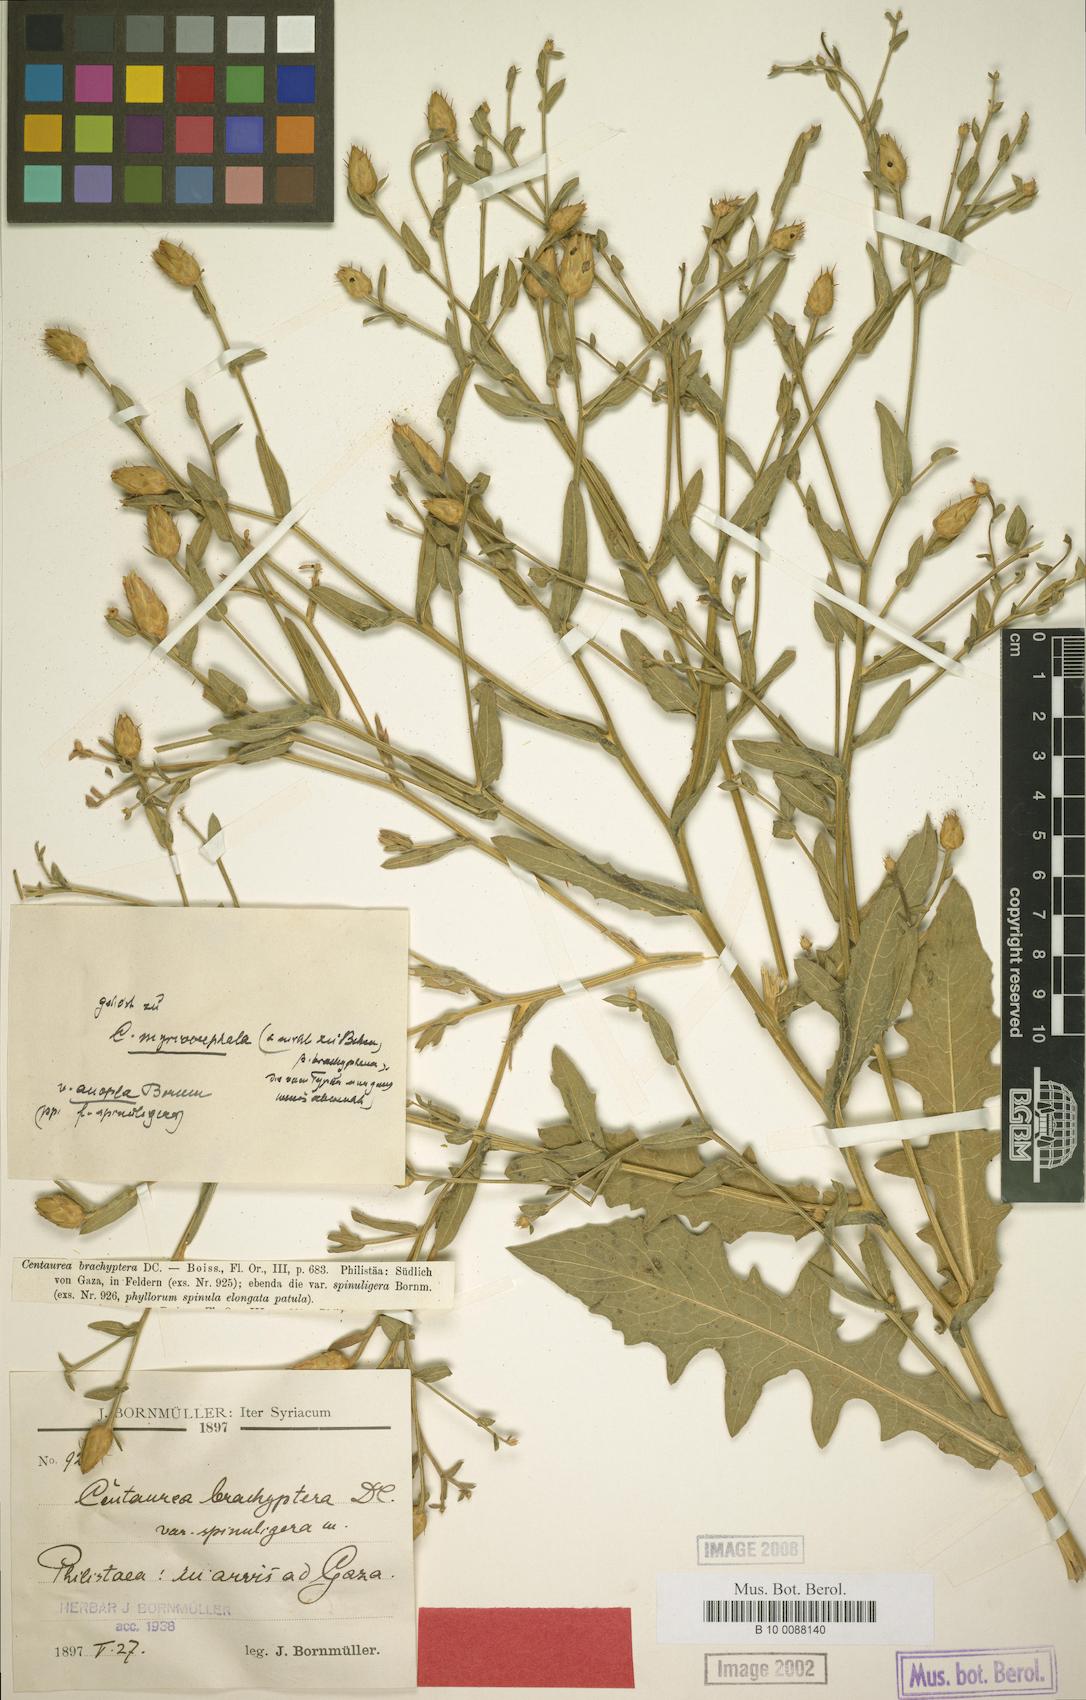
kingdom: Plantae
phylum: Tracheophyta
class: Magnoliopsida
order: Asterales
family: Asteraceae
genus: Centaurea
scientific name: Centaurea ascalonica
